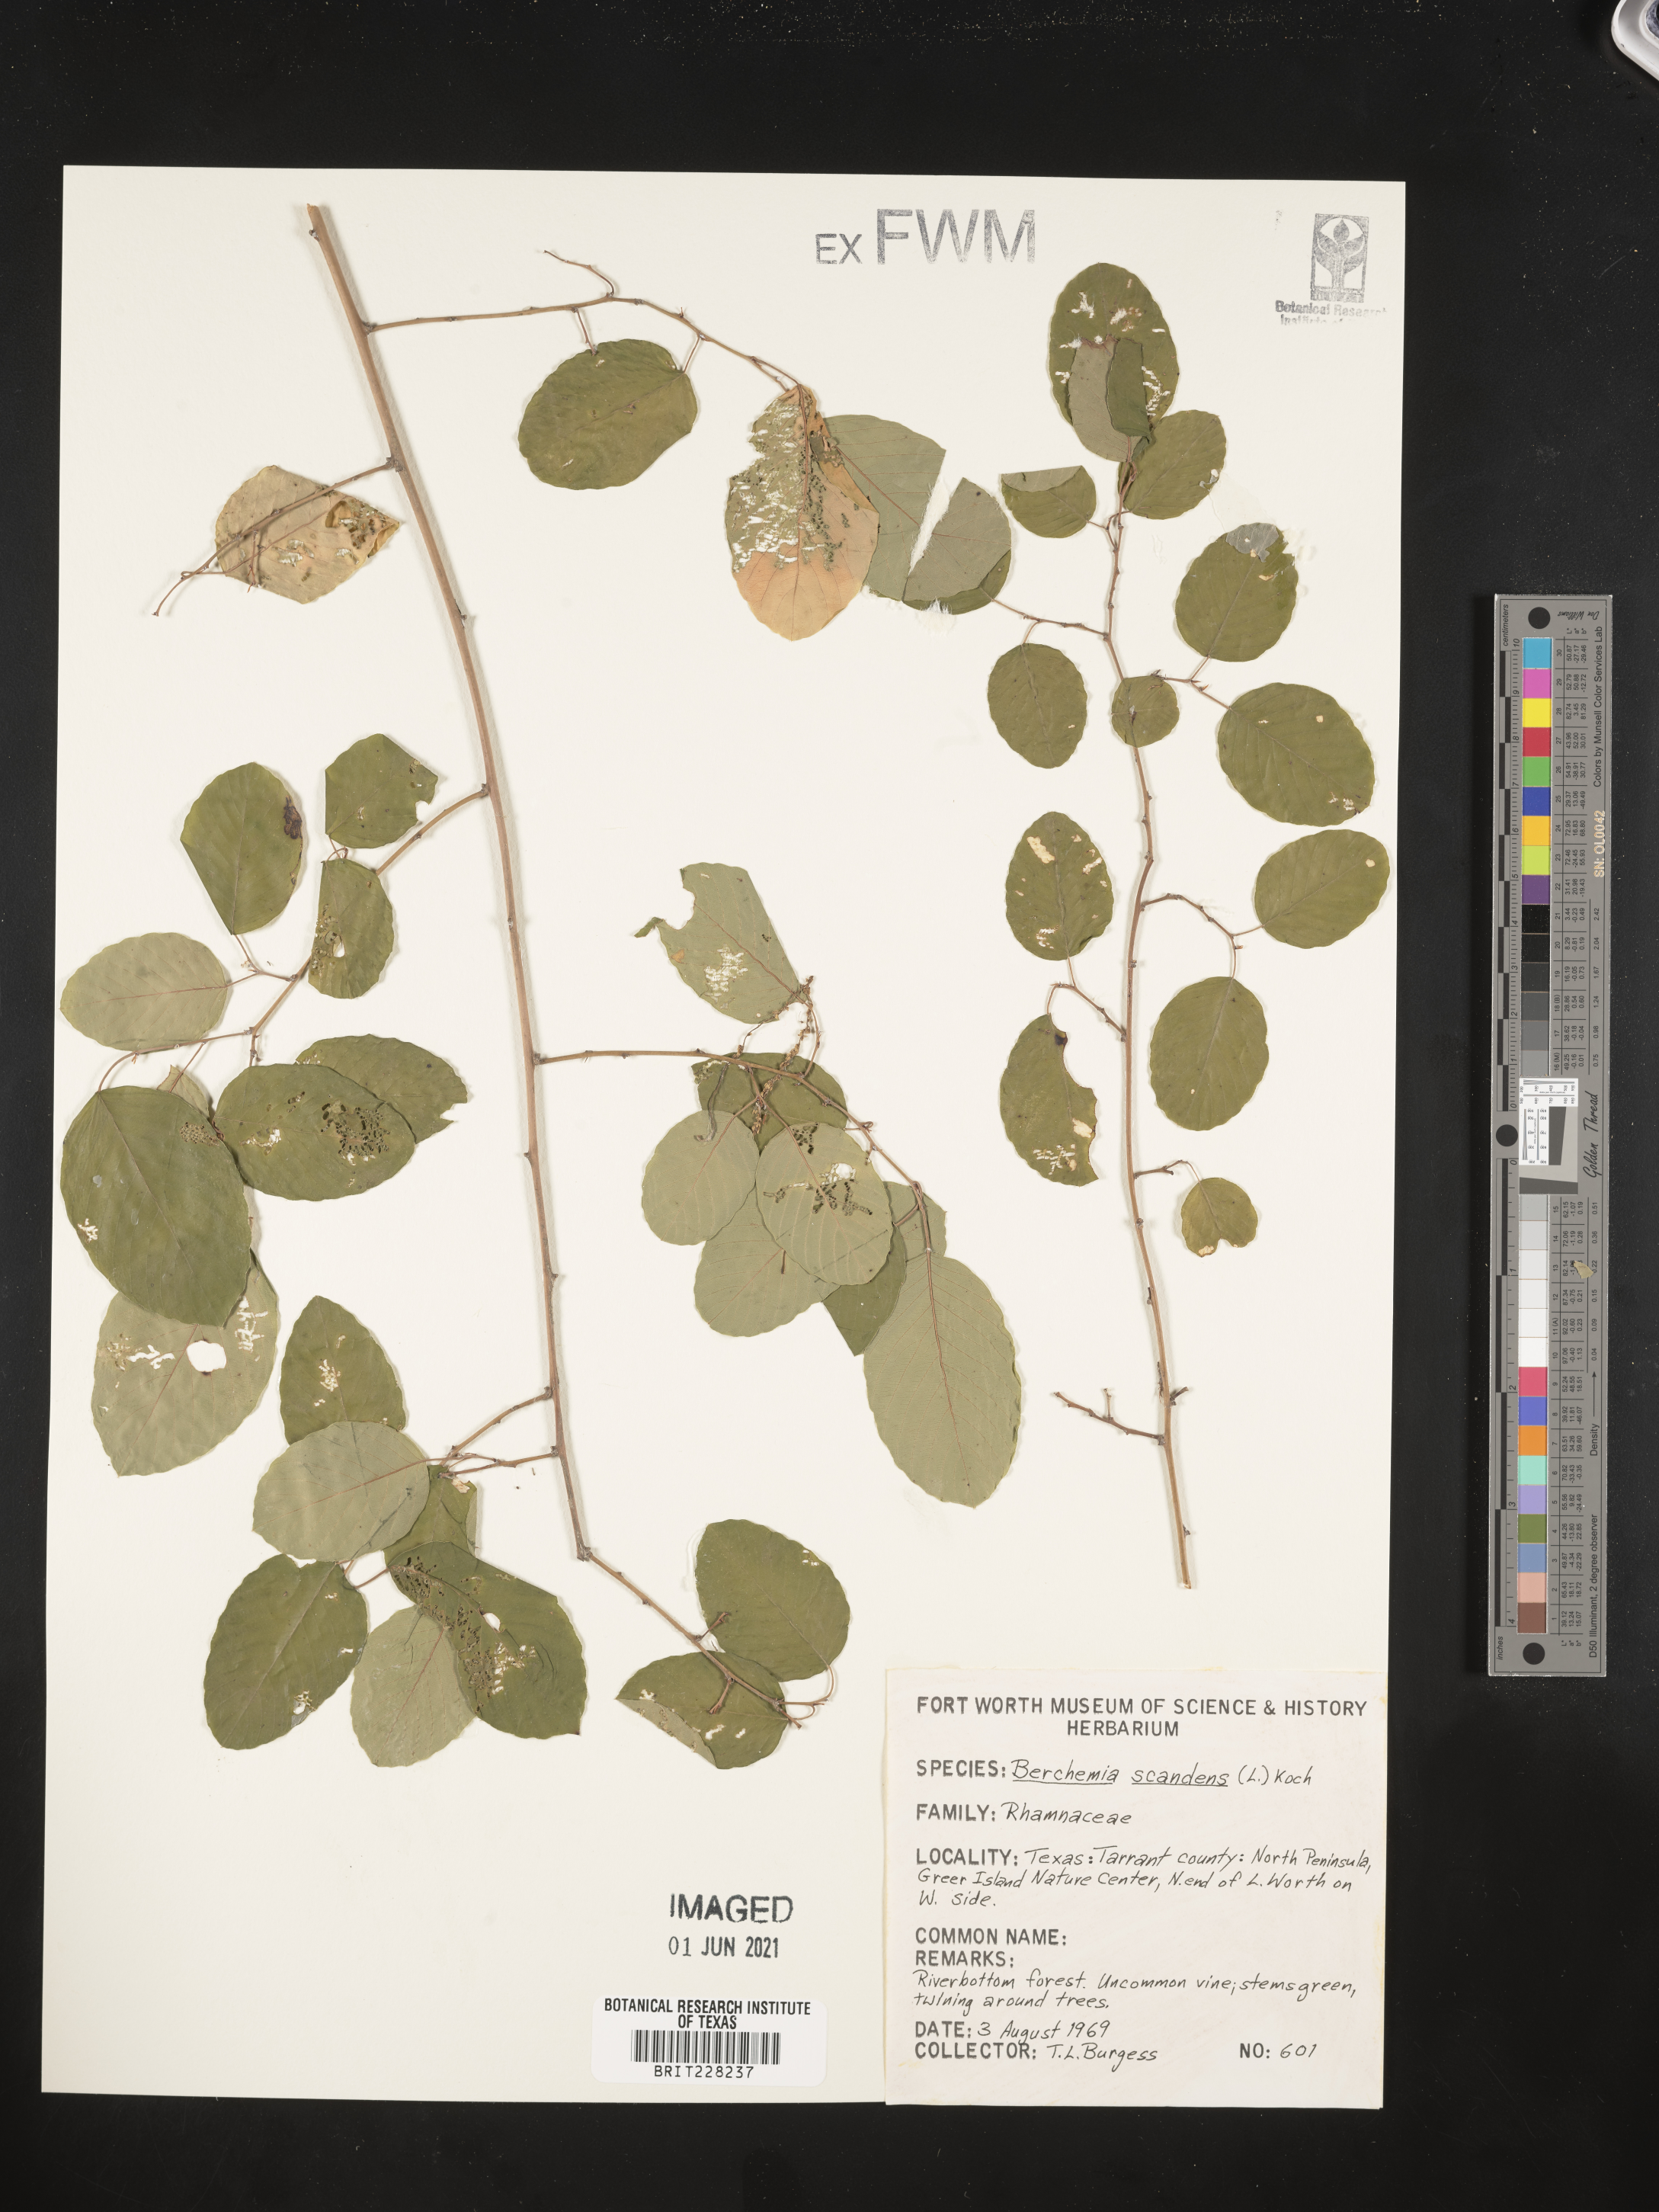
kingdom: Plantae
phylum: Tracheophyta
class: Magnoliopsida
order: Rosales
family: Rhamnaceae
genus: Berchemia
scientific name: Berchemia scandens
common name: Supplejack
